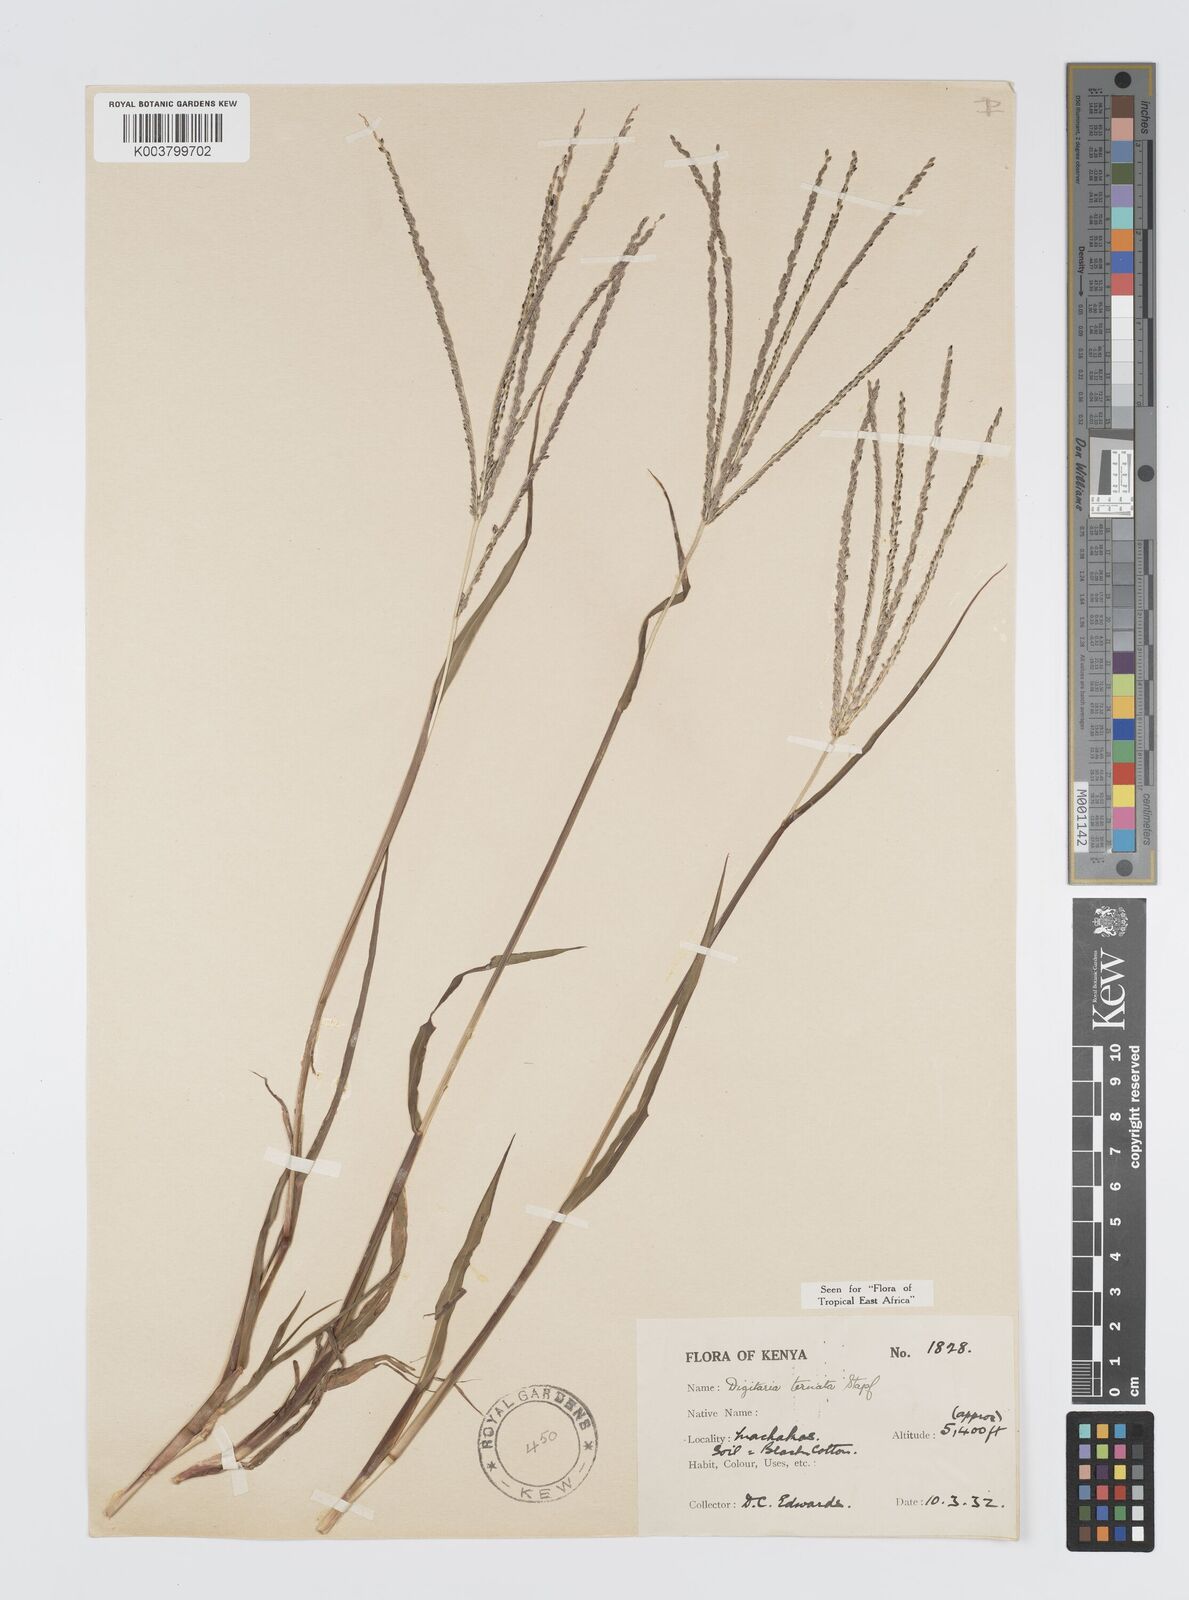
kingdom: Plantae
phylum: Tracheophyta
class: Liliopsida
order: Poales
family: Poaceae
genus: Digitaria
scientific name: Digitaria ternata
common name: Blackseed crabgrass
